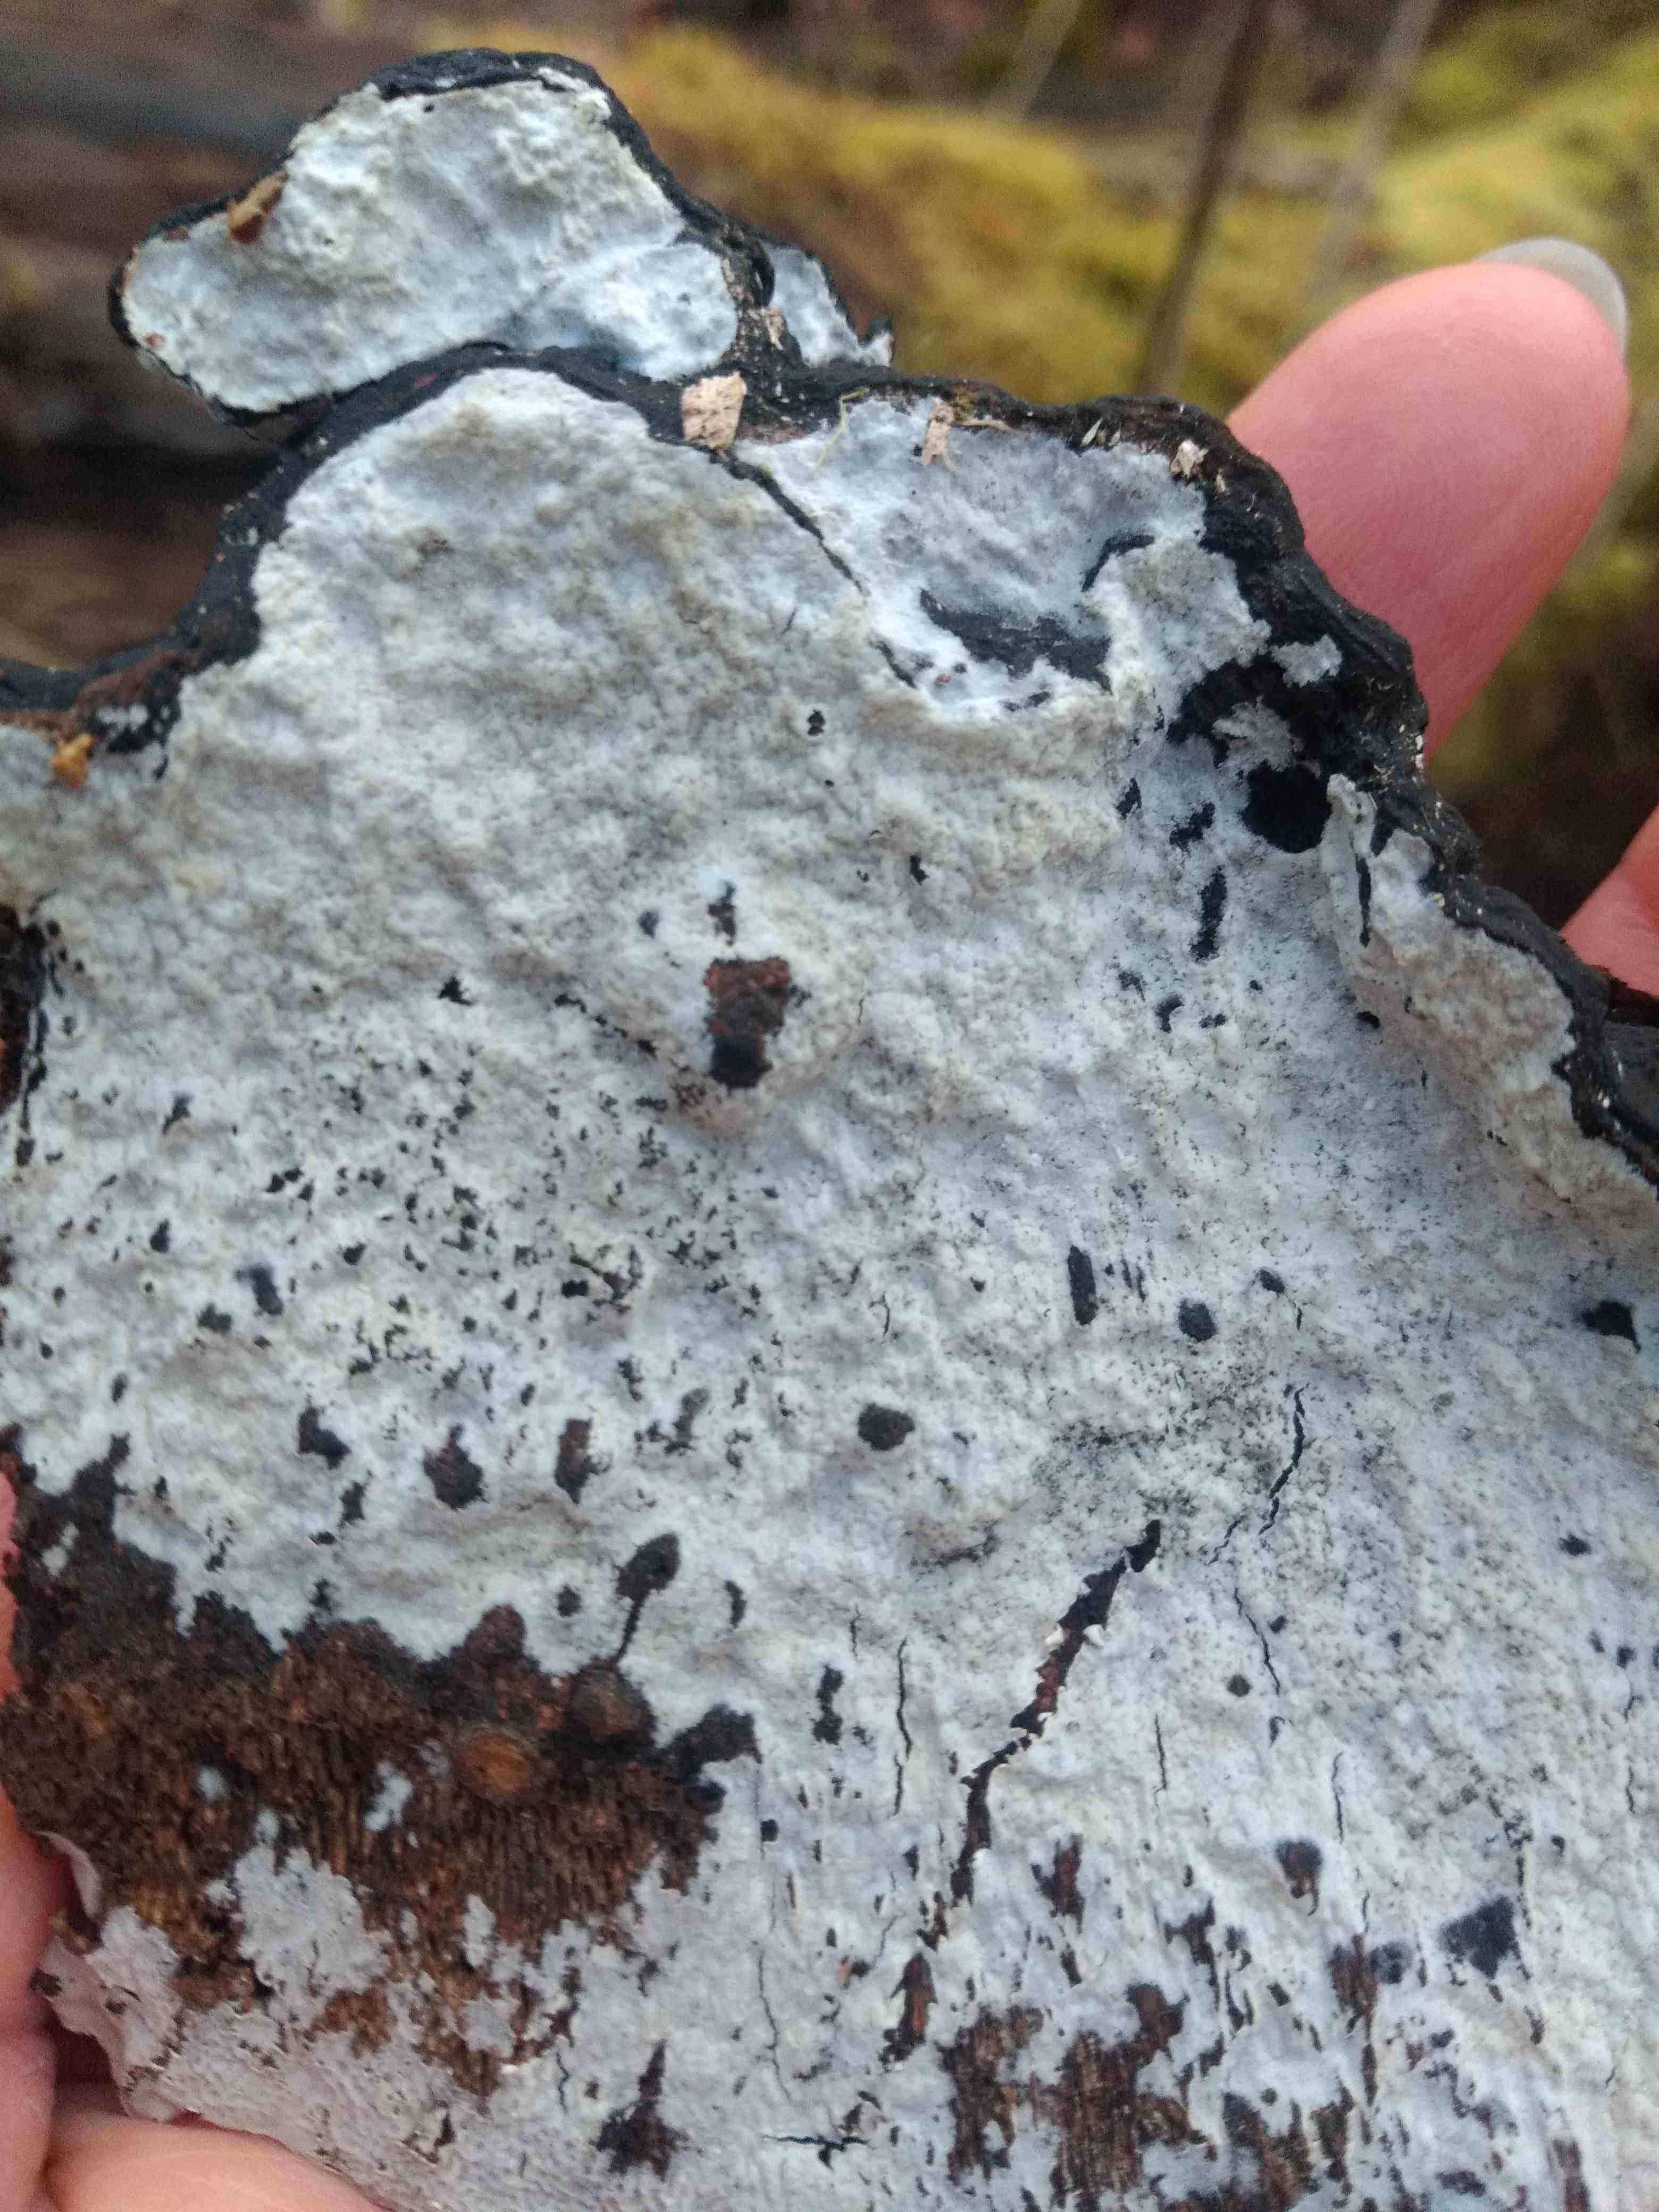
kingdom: Fungi
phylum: Basidiomycota
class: Agaricomycetes
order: Corticiales
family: Corticiaceae
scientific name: Corticiaceae
